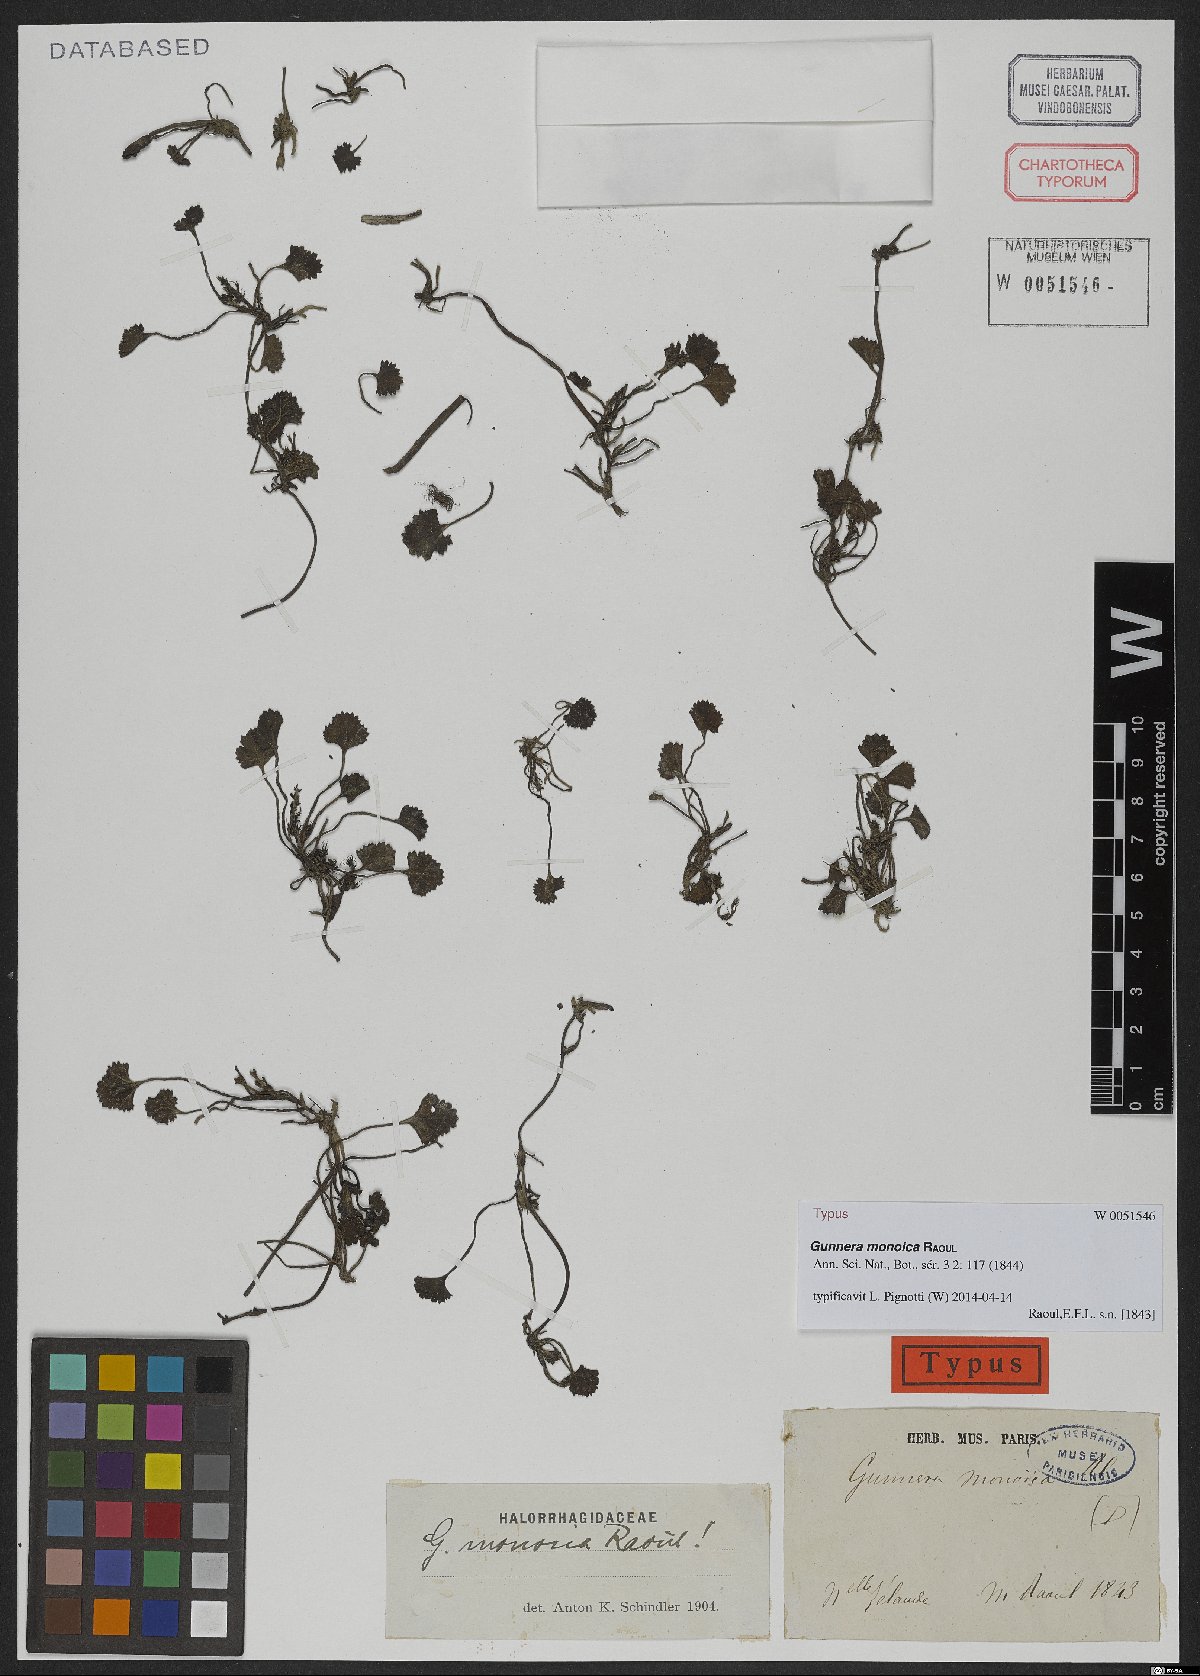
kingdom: Plantae
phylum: Tracheophyta
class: Magnoliopsida
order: Gunnerales
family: Gunneraceae
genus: Gunnera
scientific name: Gunnera monoica
